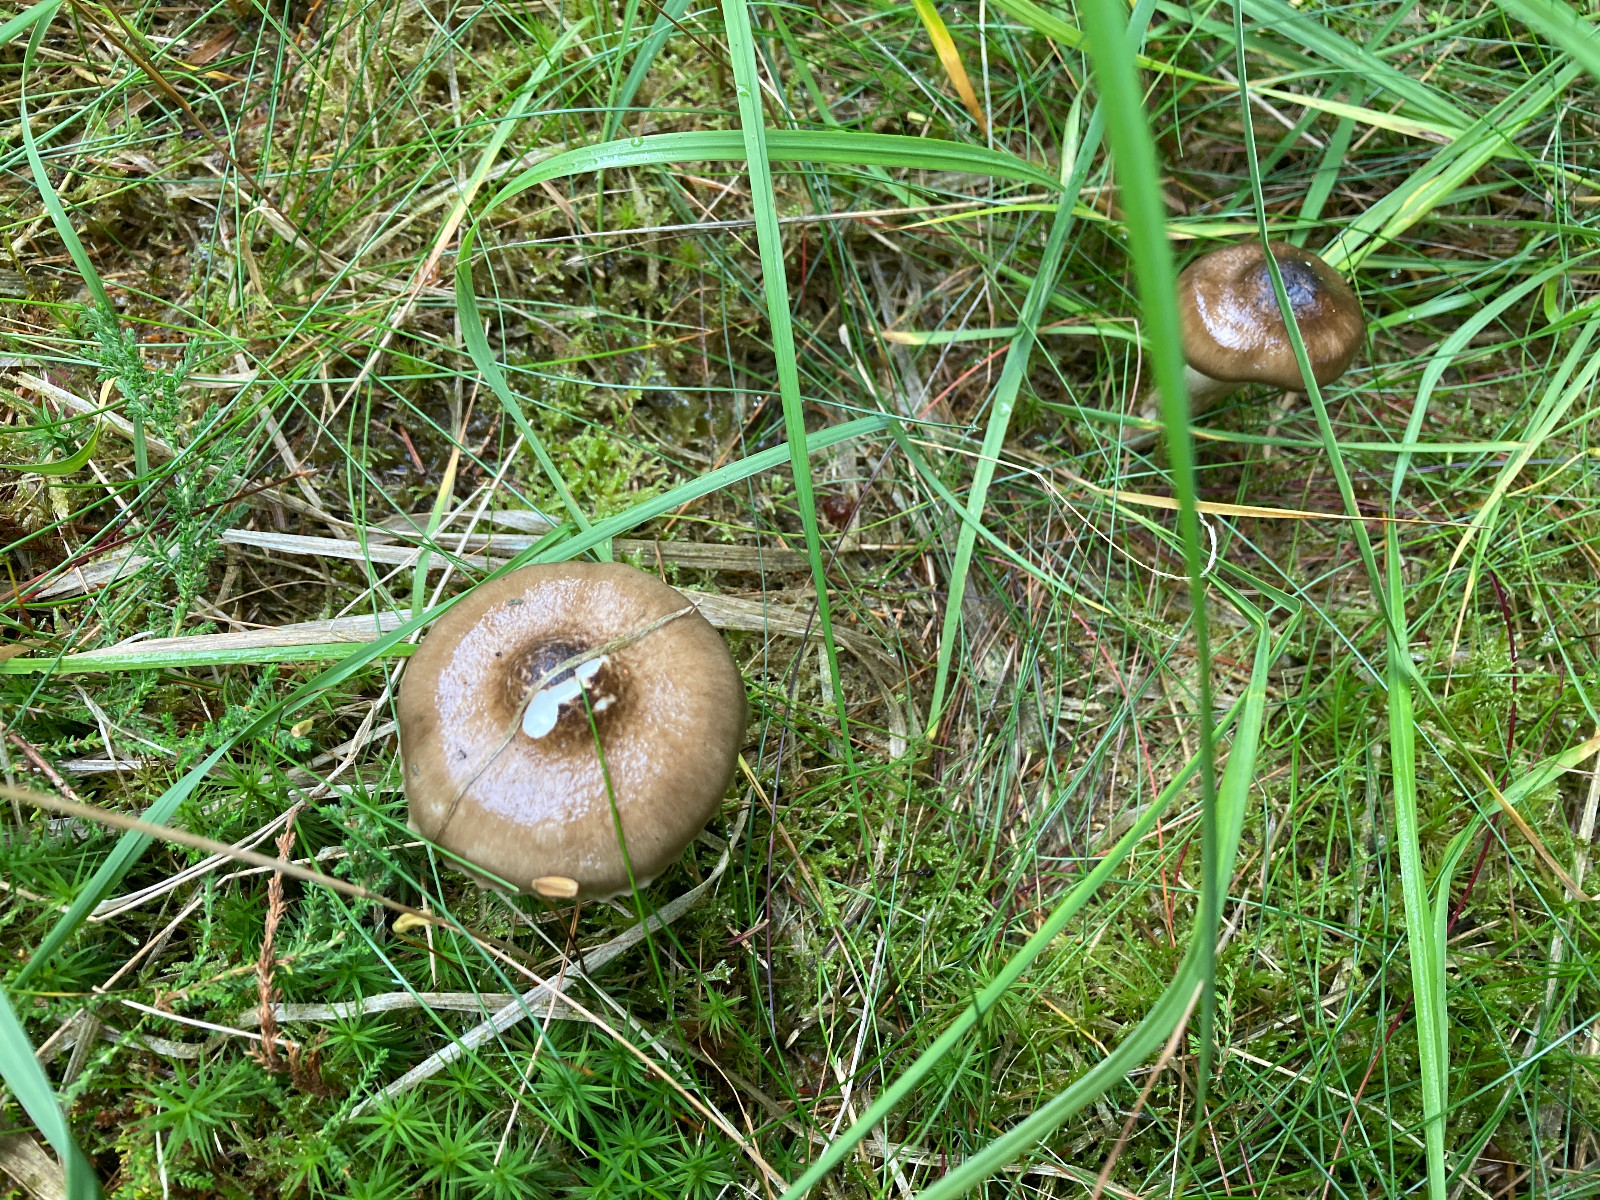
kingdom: Fungi
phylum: Basidiomycota
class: Agaricomycetes
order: Agaricales
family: Hygrophoraceae
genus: Hygrophorus
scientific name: Hygrophorus olivaceoalbus
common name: hvidbrun sneglehat
